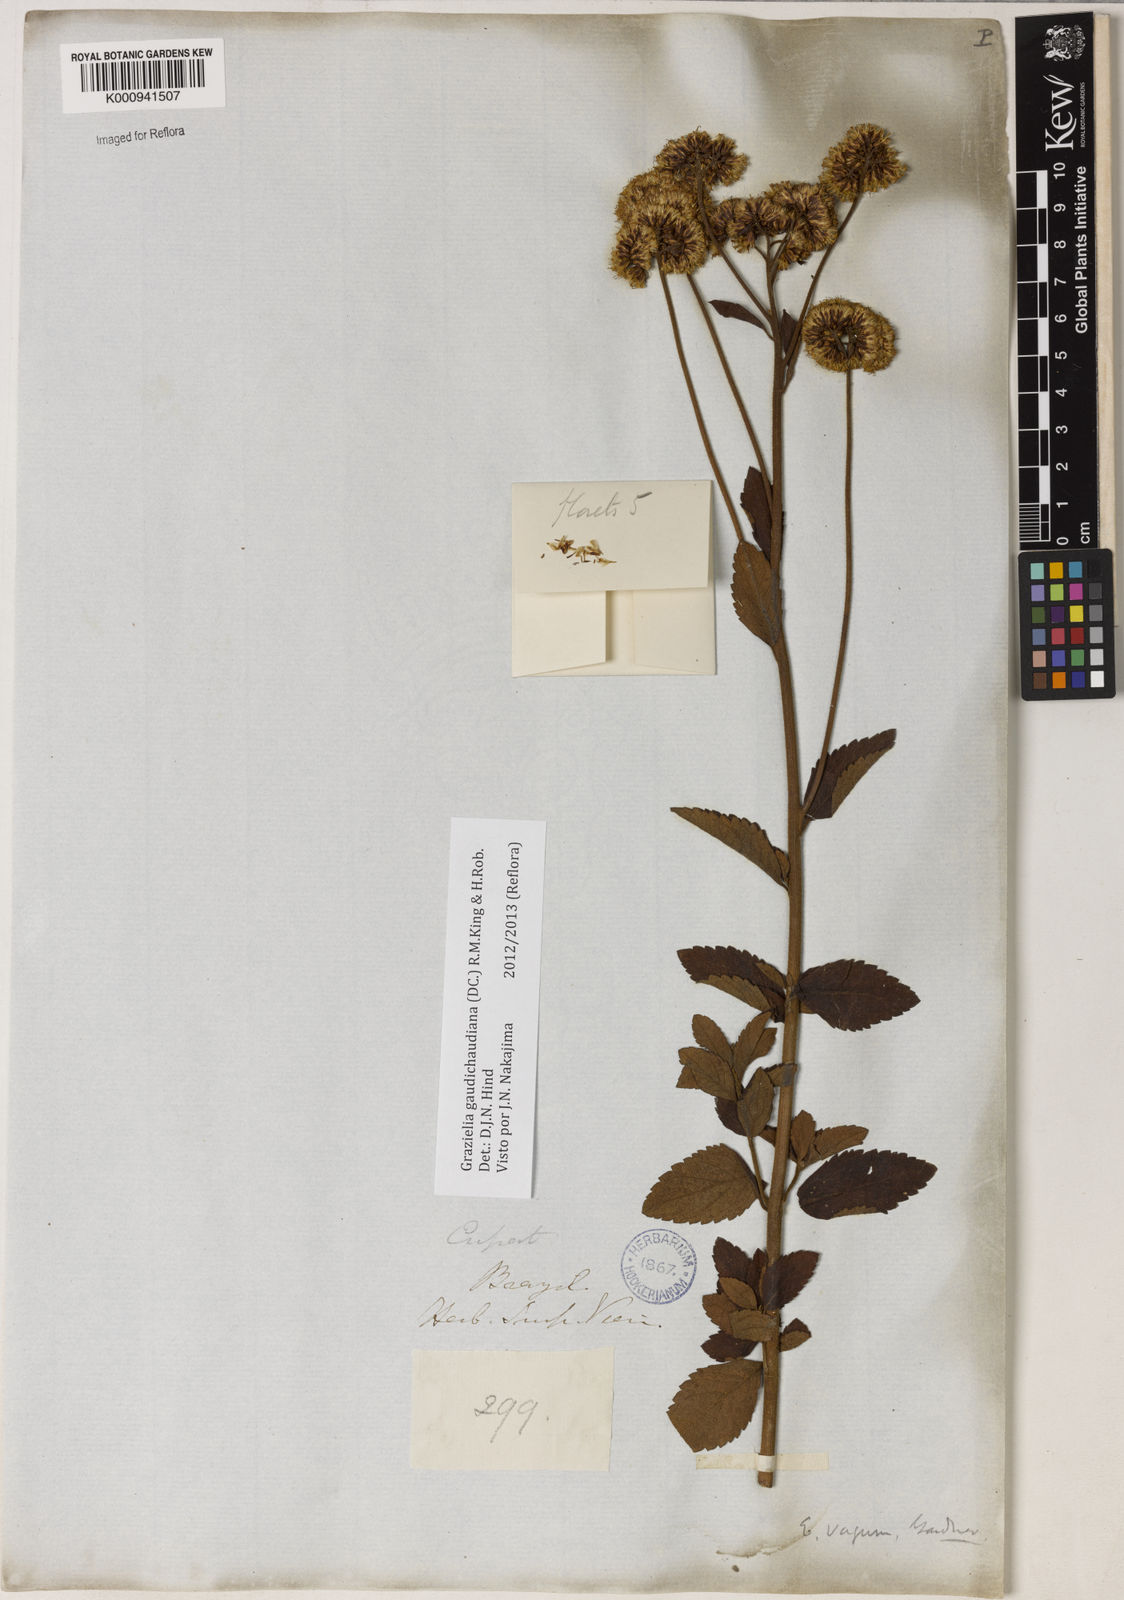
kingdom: Plantae
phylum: Tracheophyta
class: Magnoliopsida
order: Asterales
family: Asteraceae
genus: Grazielia
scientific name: Grazielia
